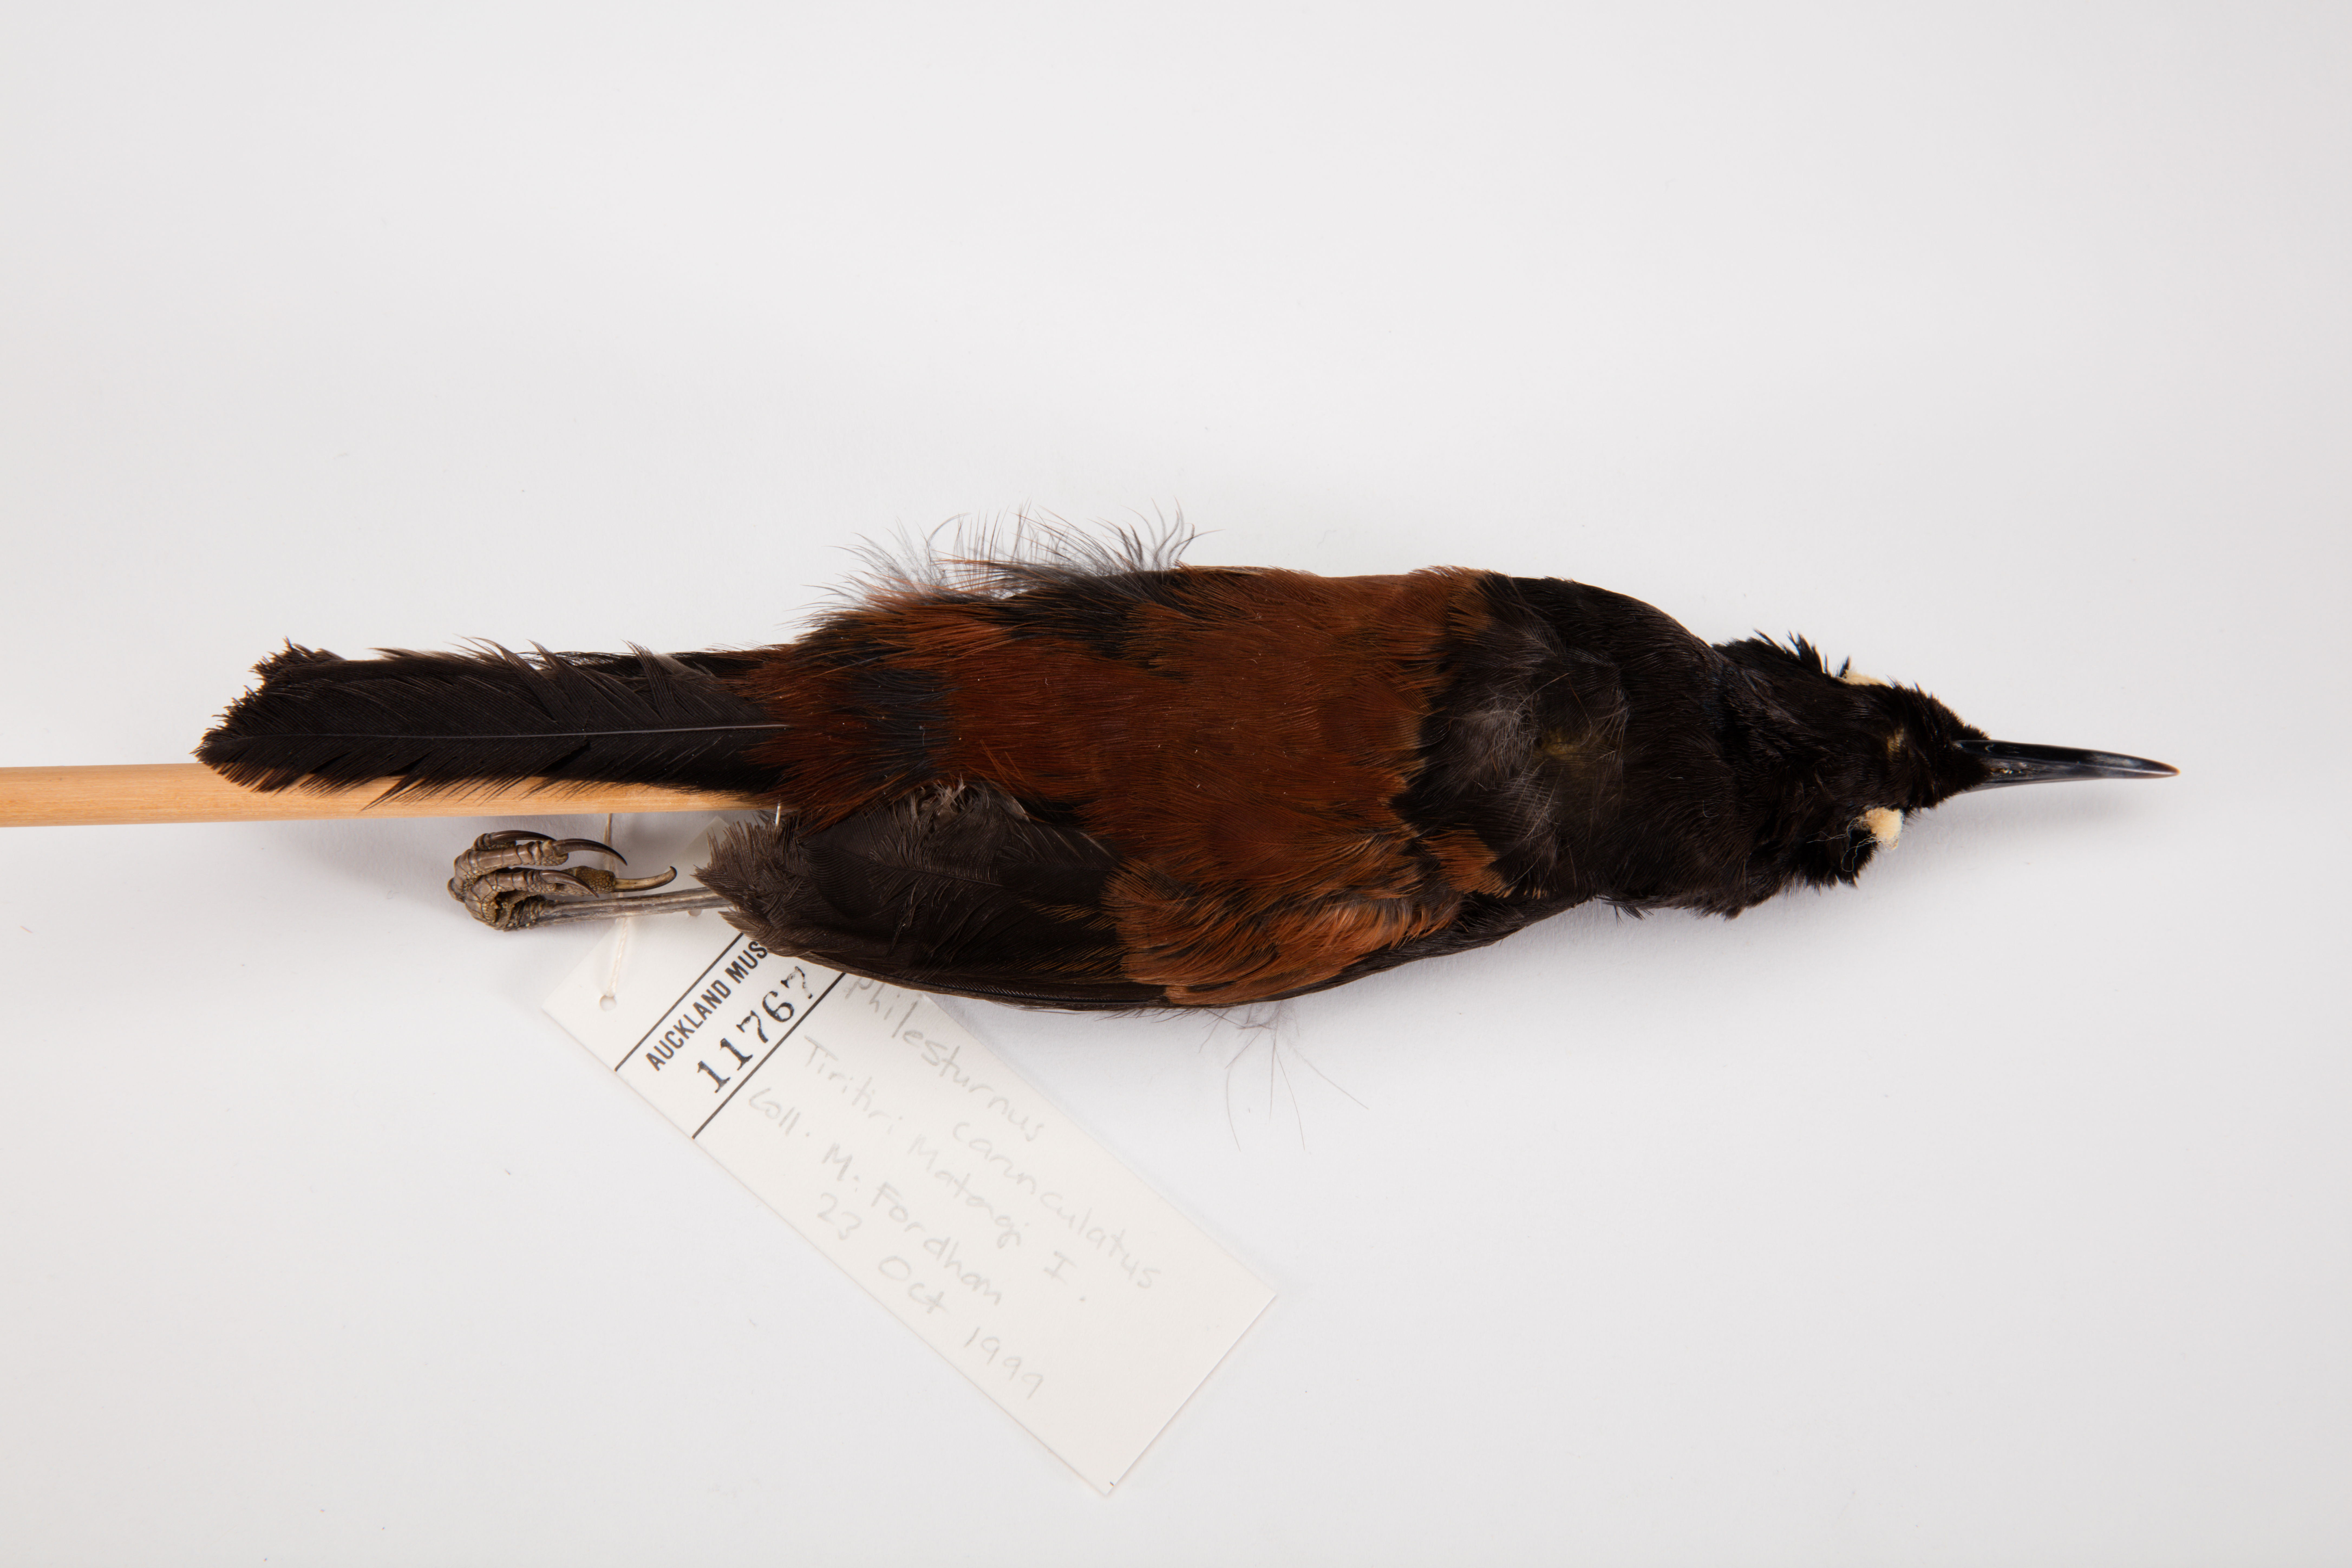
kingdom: Animalia
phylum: Chordata
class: Aves
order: Passeriformes
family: Callaeatidae
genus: Philesturnus
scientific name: Philesturnus carunculatus
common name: South island saddleback
